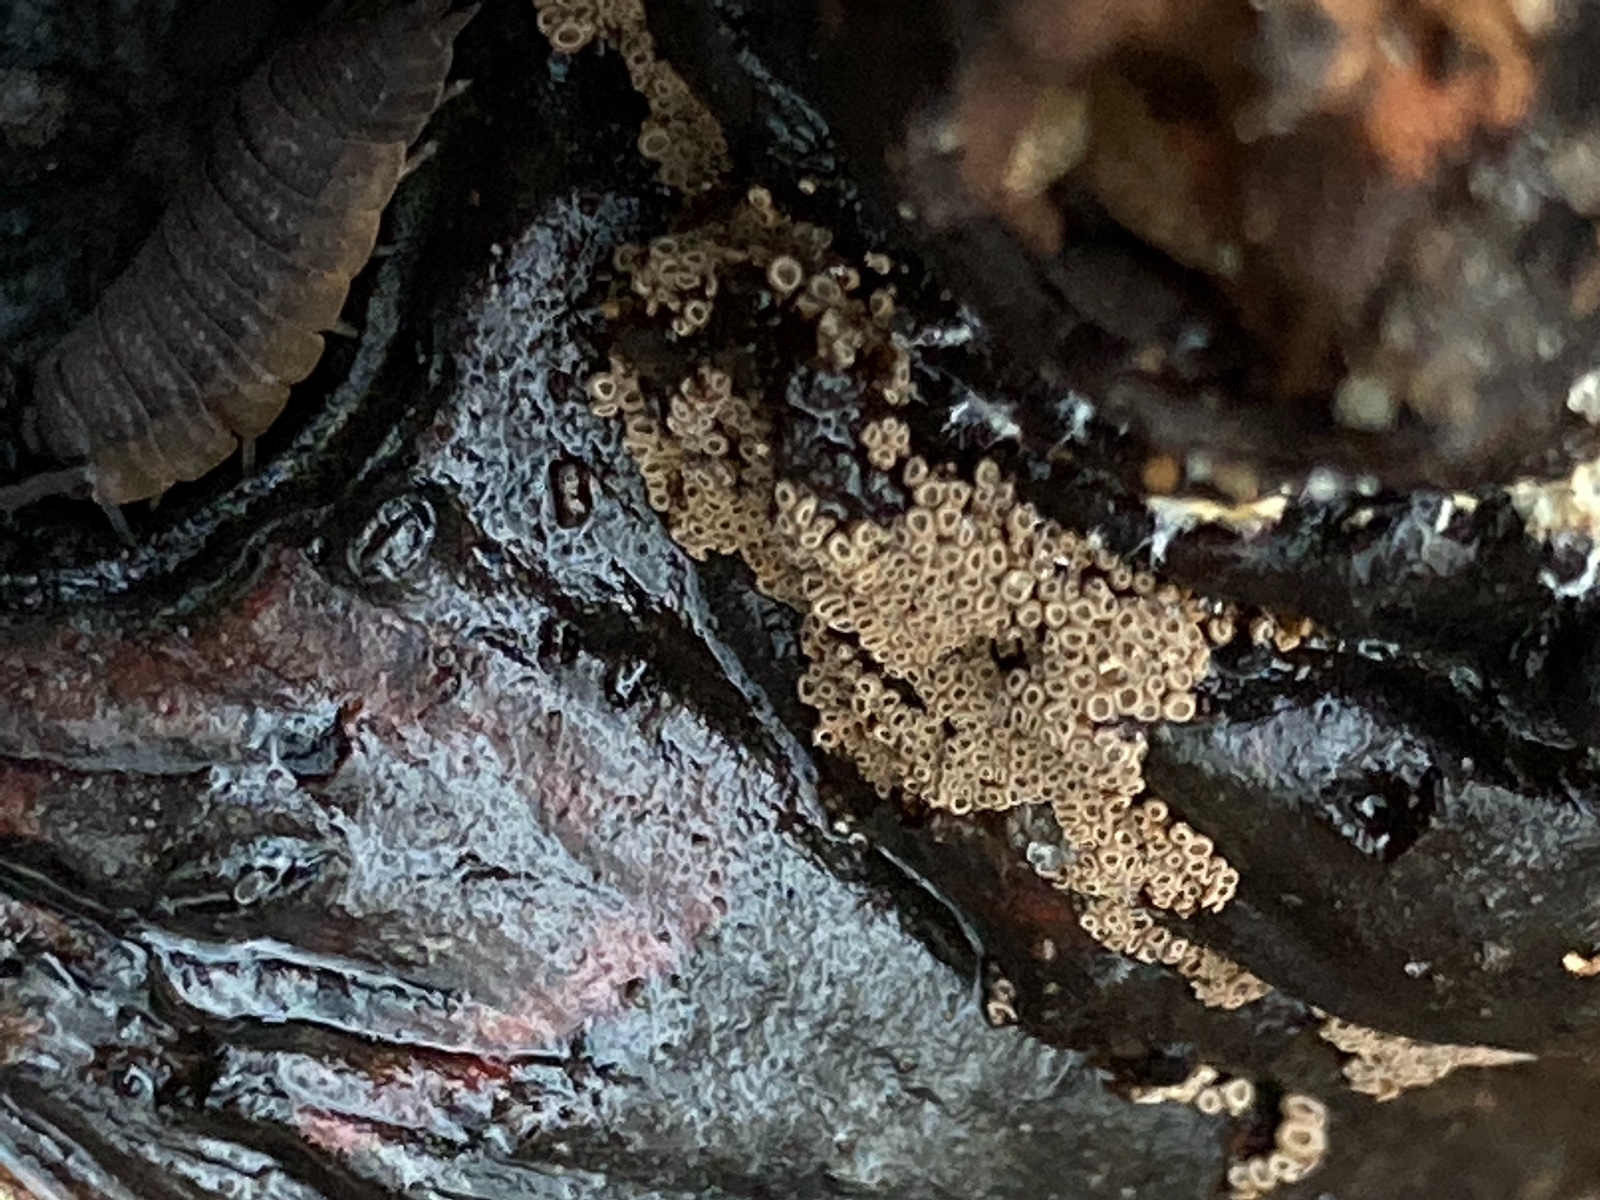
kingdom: Fungi
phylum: Basidiomycota
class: Agaricomycetes
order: Agaricales
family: Niaceae
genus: Merismodes
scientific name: Merismodes anomala
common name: almindelig læderskål
